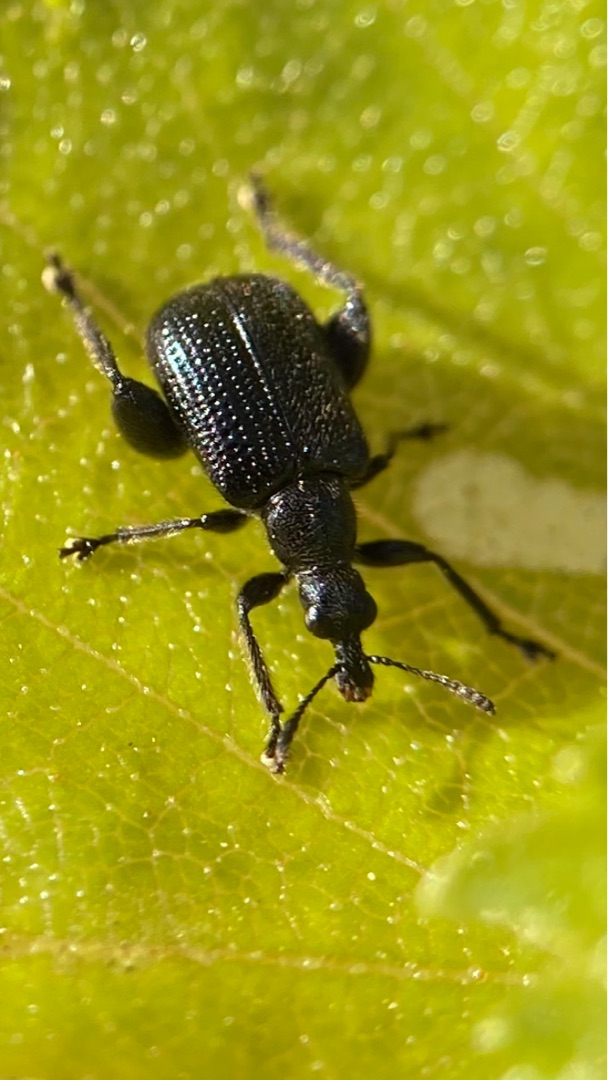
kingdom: Animalia
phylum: Arthropoda
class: Insecta
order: Coleoptera
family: Attelabidae
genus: Byctiscus
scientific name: Byctiscus betulae
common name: Birkebladruller
